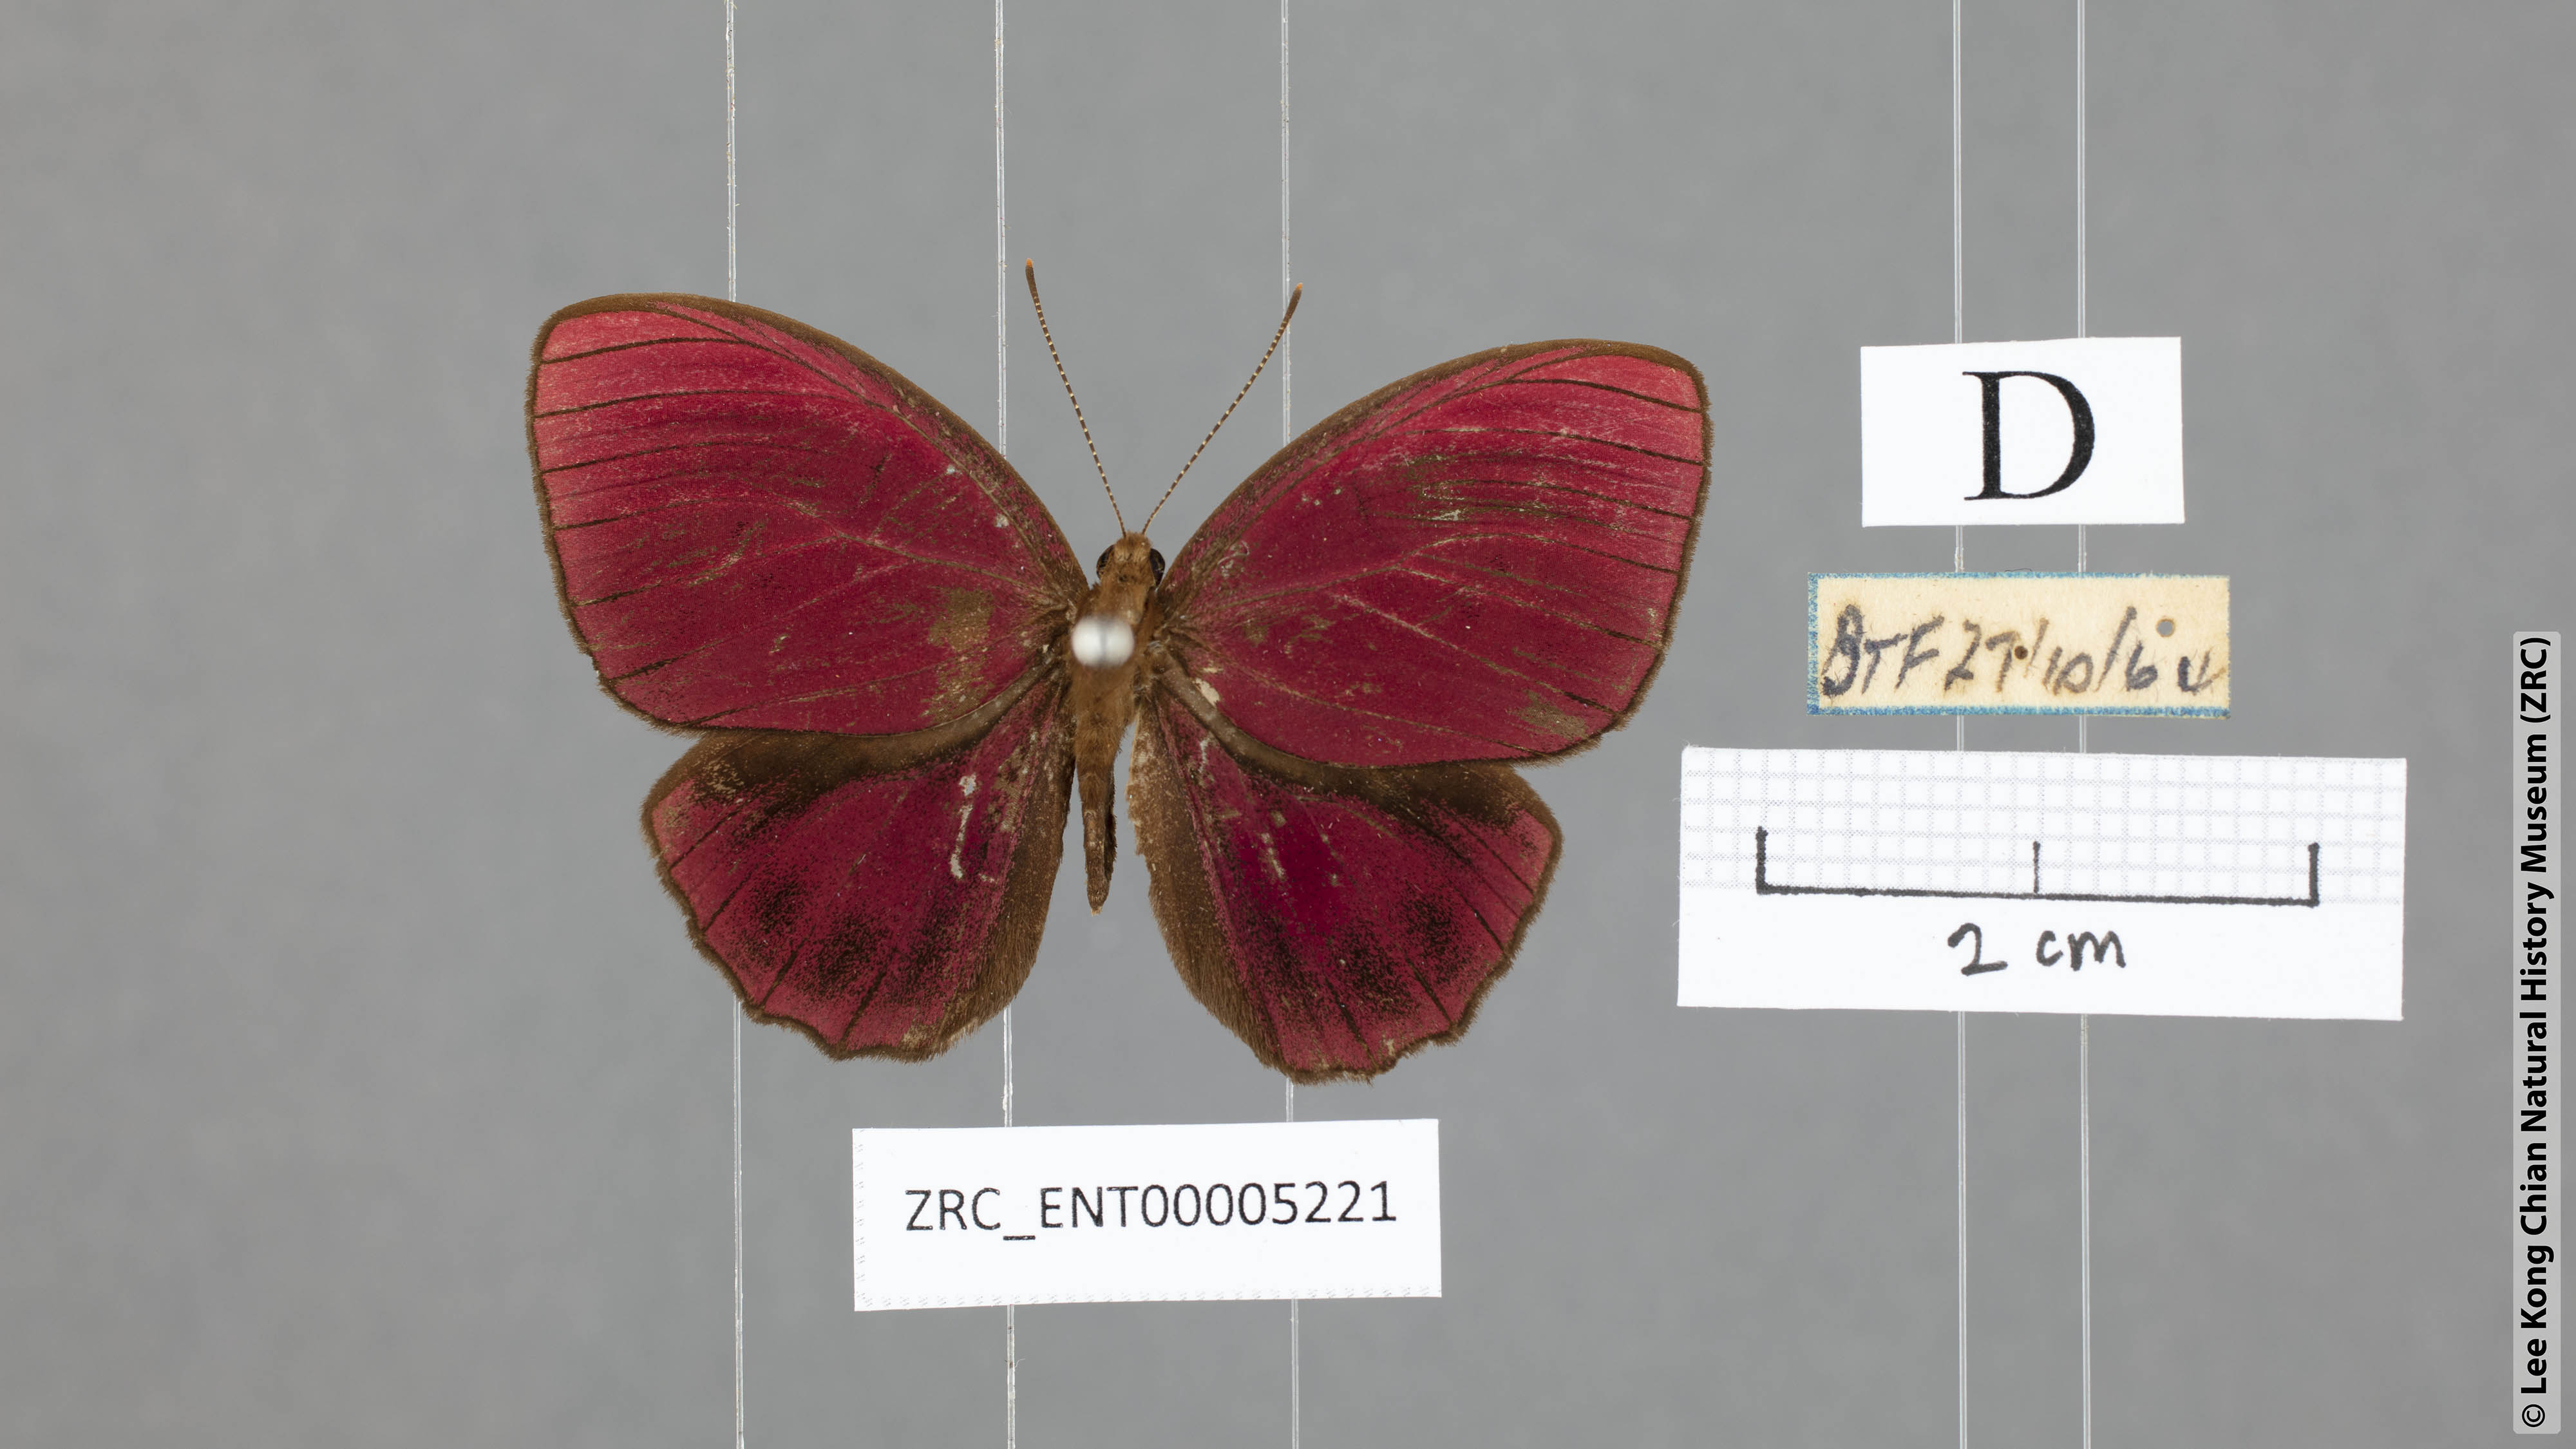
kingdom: Animalia
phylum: Arthropoda
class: Insecta
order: Lepidoptera
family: Riodinidae
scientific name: Riodinidae
